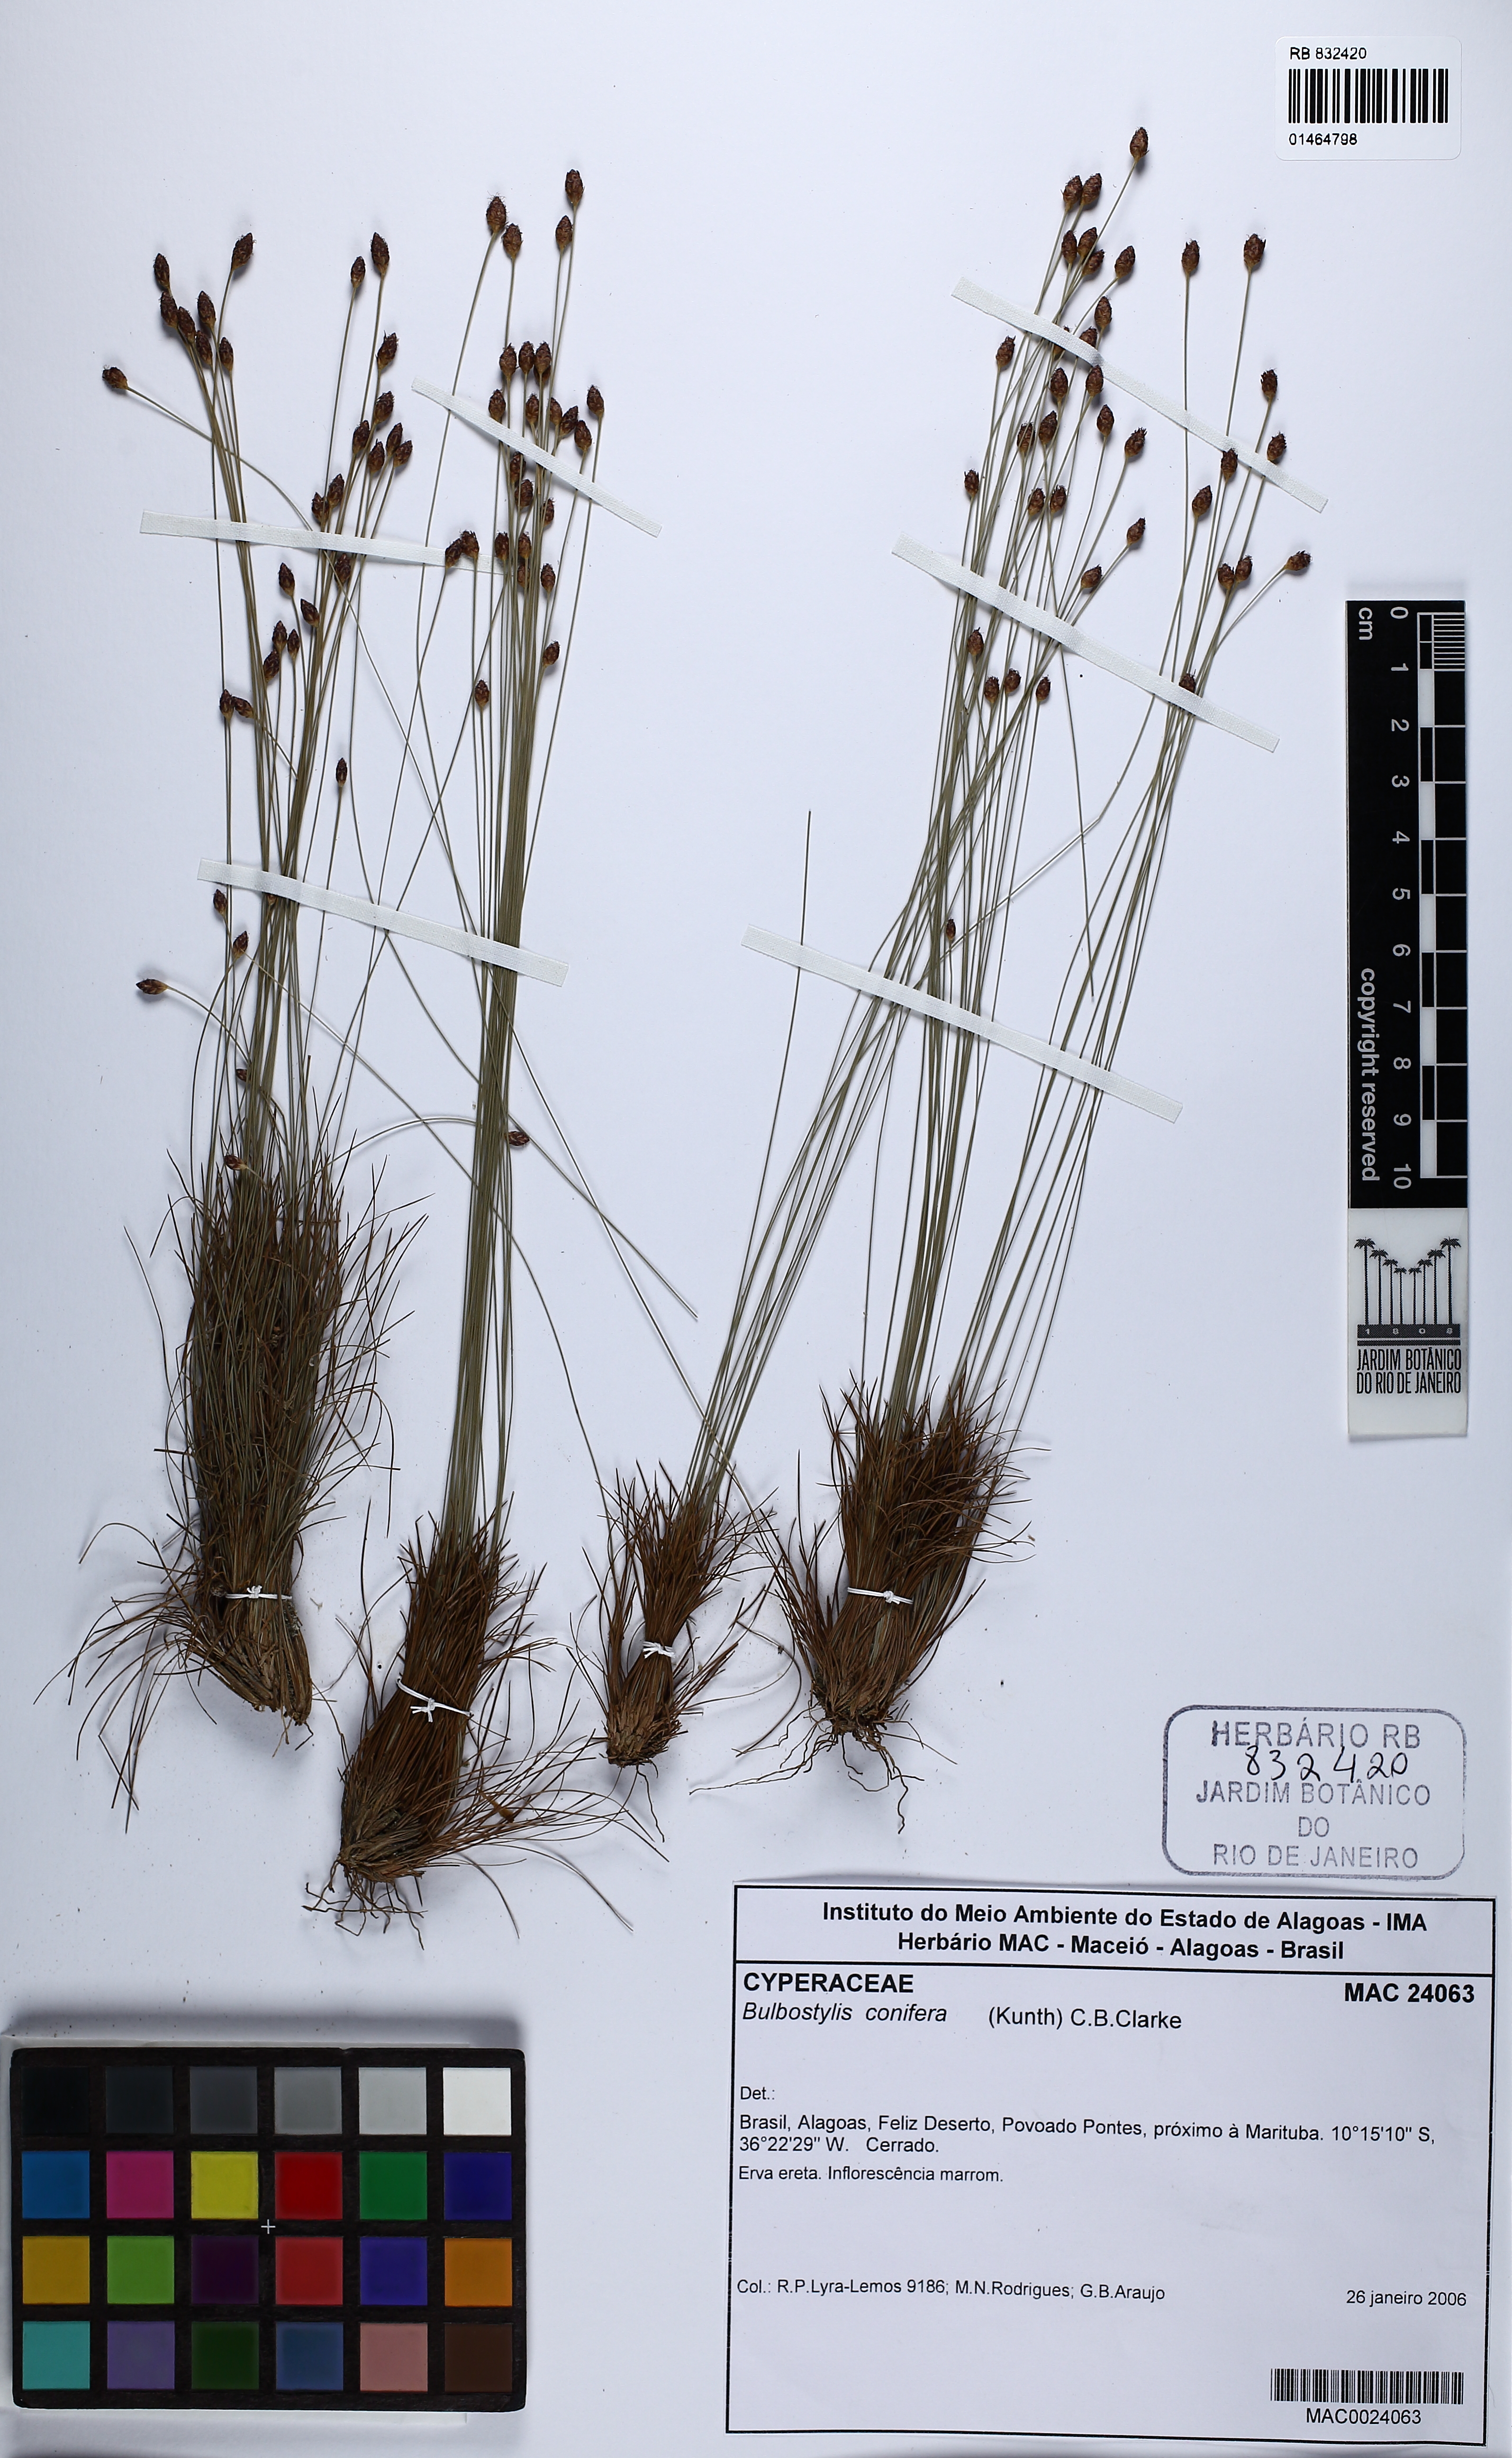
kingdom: Plantae
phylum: Tracheophyta
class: Liliopsida
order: Poales
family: Cyperaceae
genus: Bulbostylis
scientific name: Bulbostylis conifera
